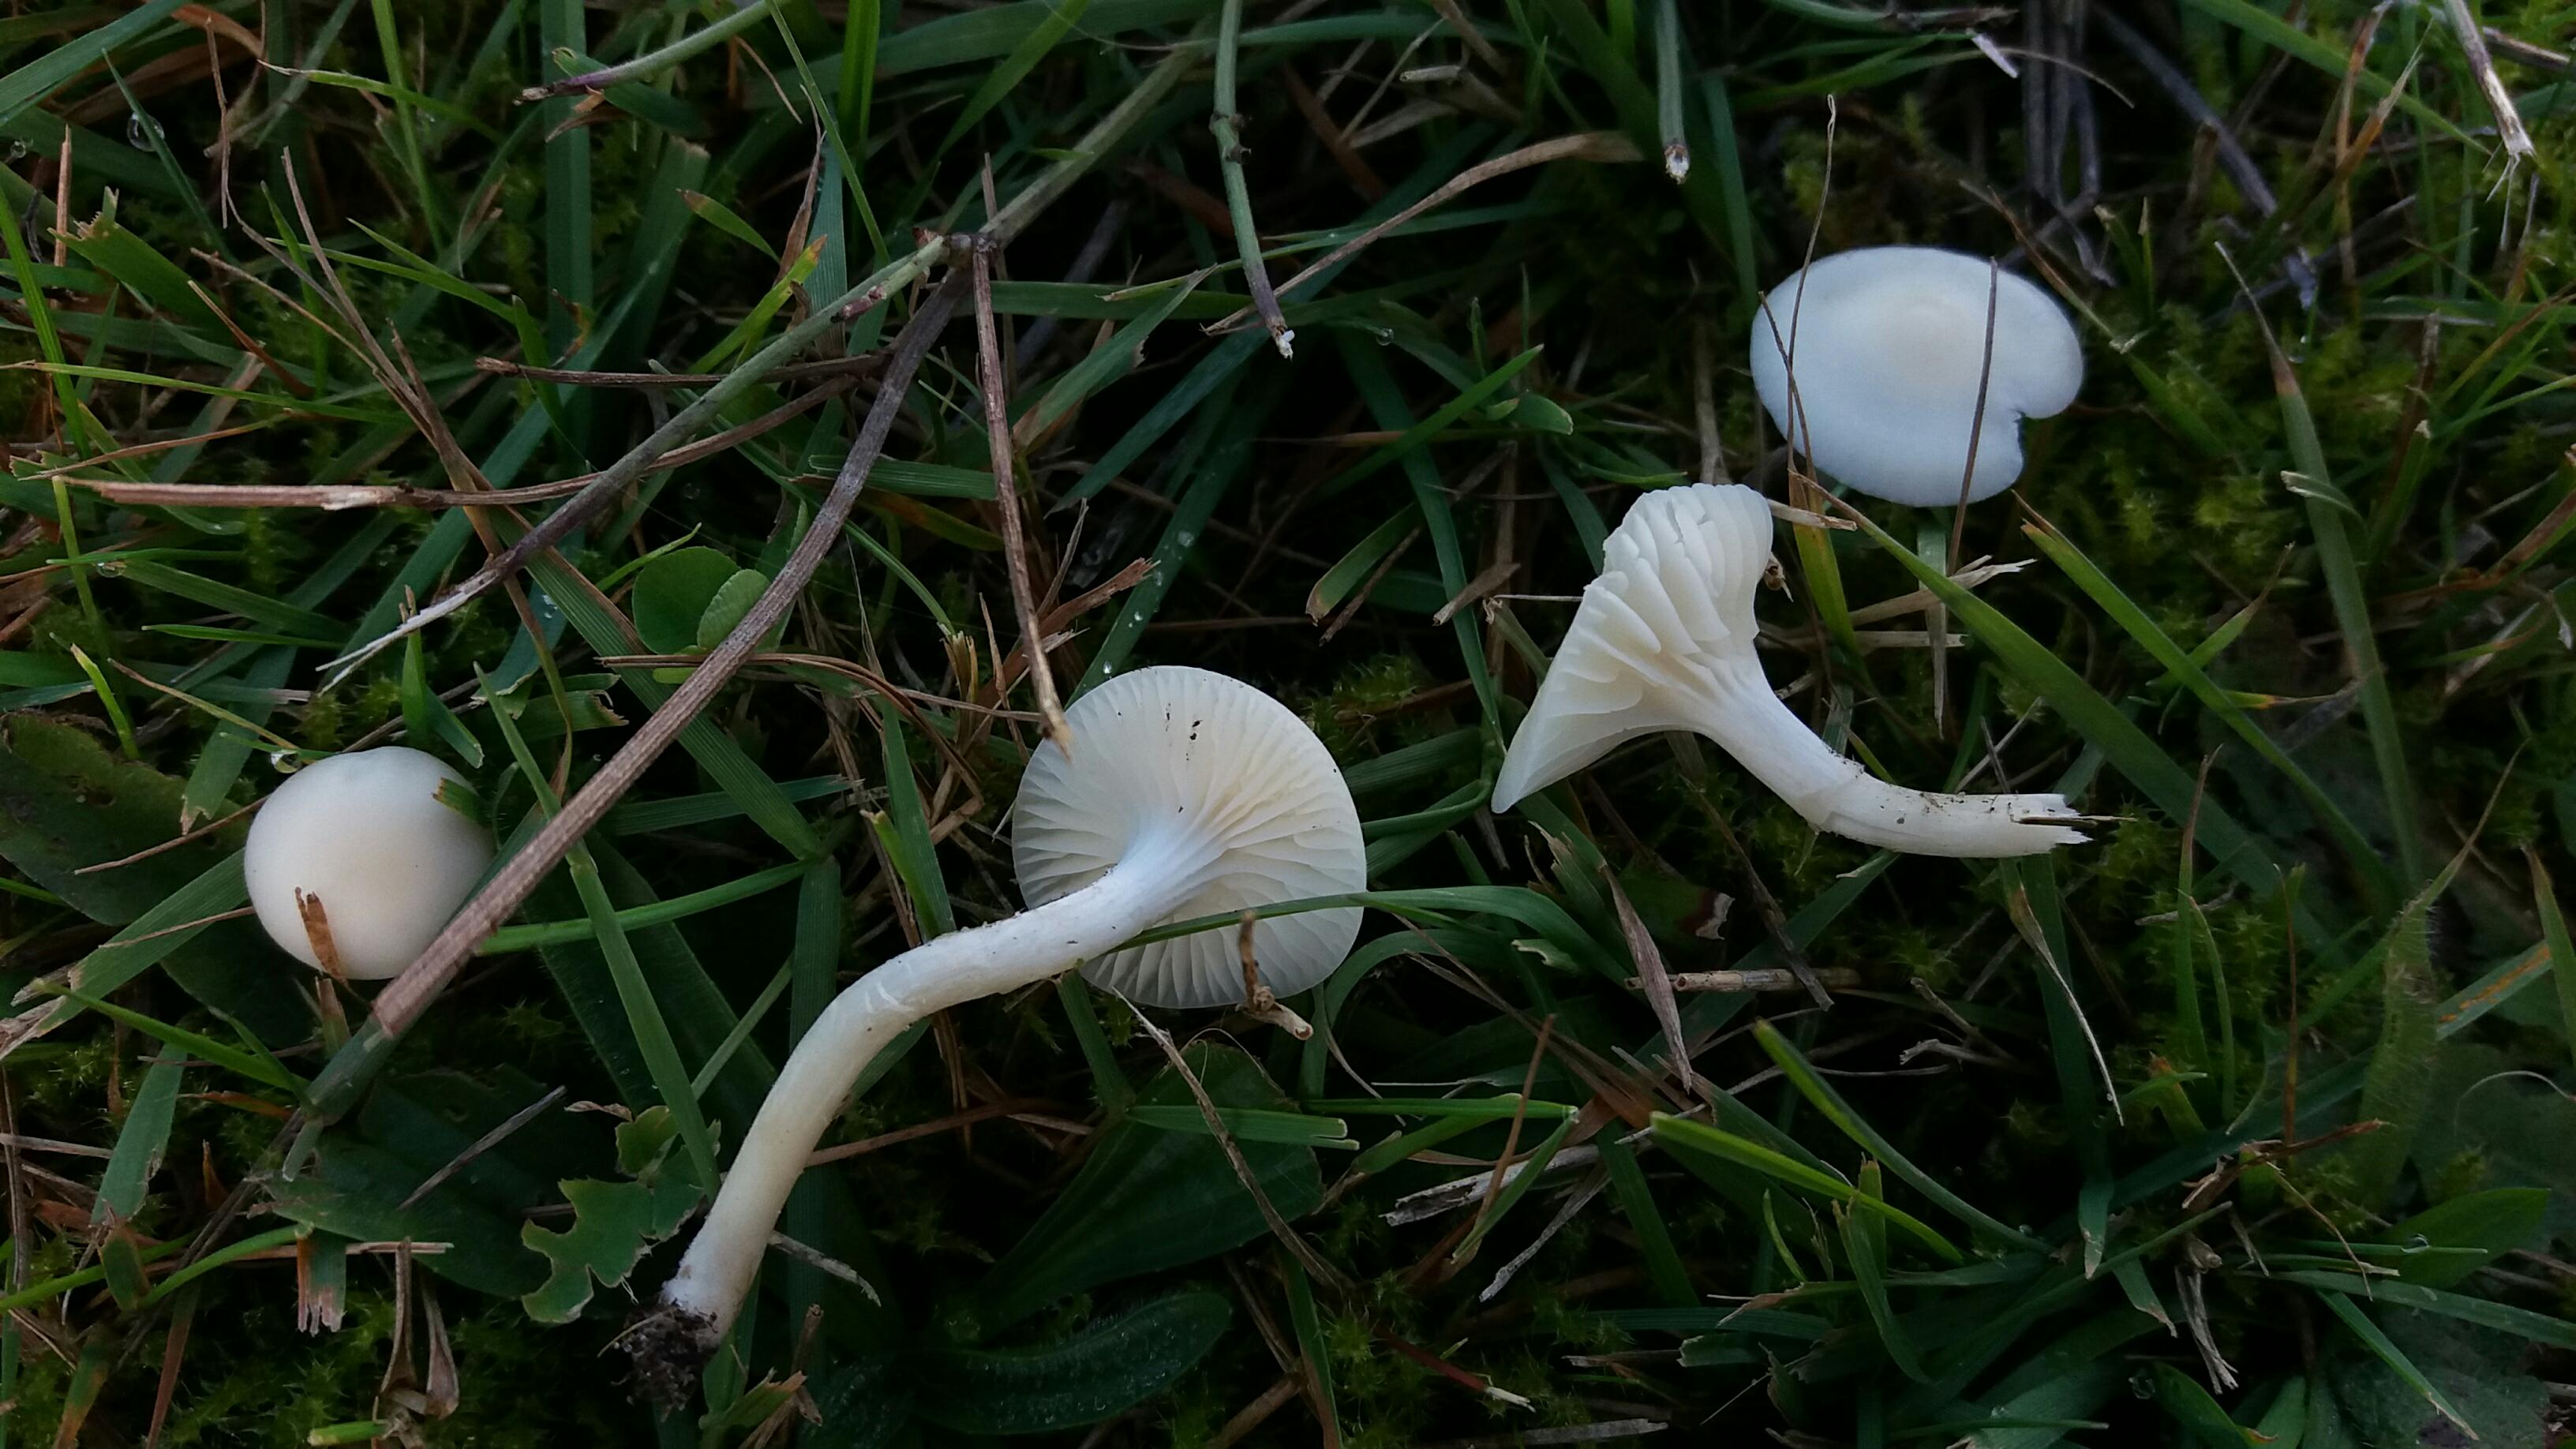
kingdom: Fungi
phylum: Basidiomycota
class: Agaricomycetes
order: Agaricales
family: Hygrophoraceae
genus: Cuphophyllus
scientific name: Cuphophyllus virgineus
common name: snehvid vokshat
